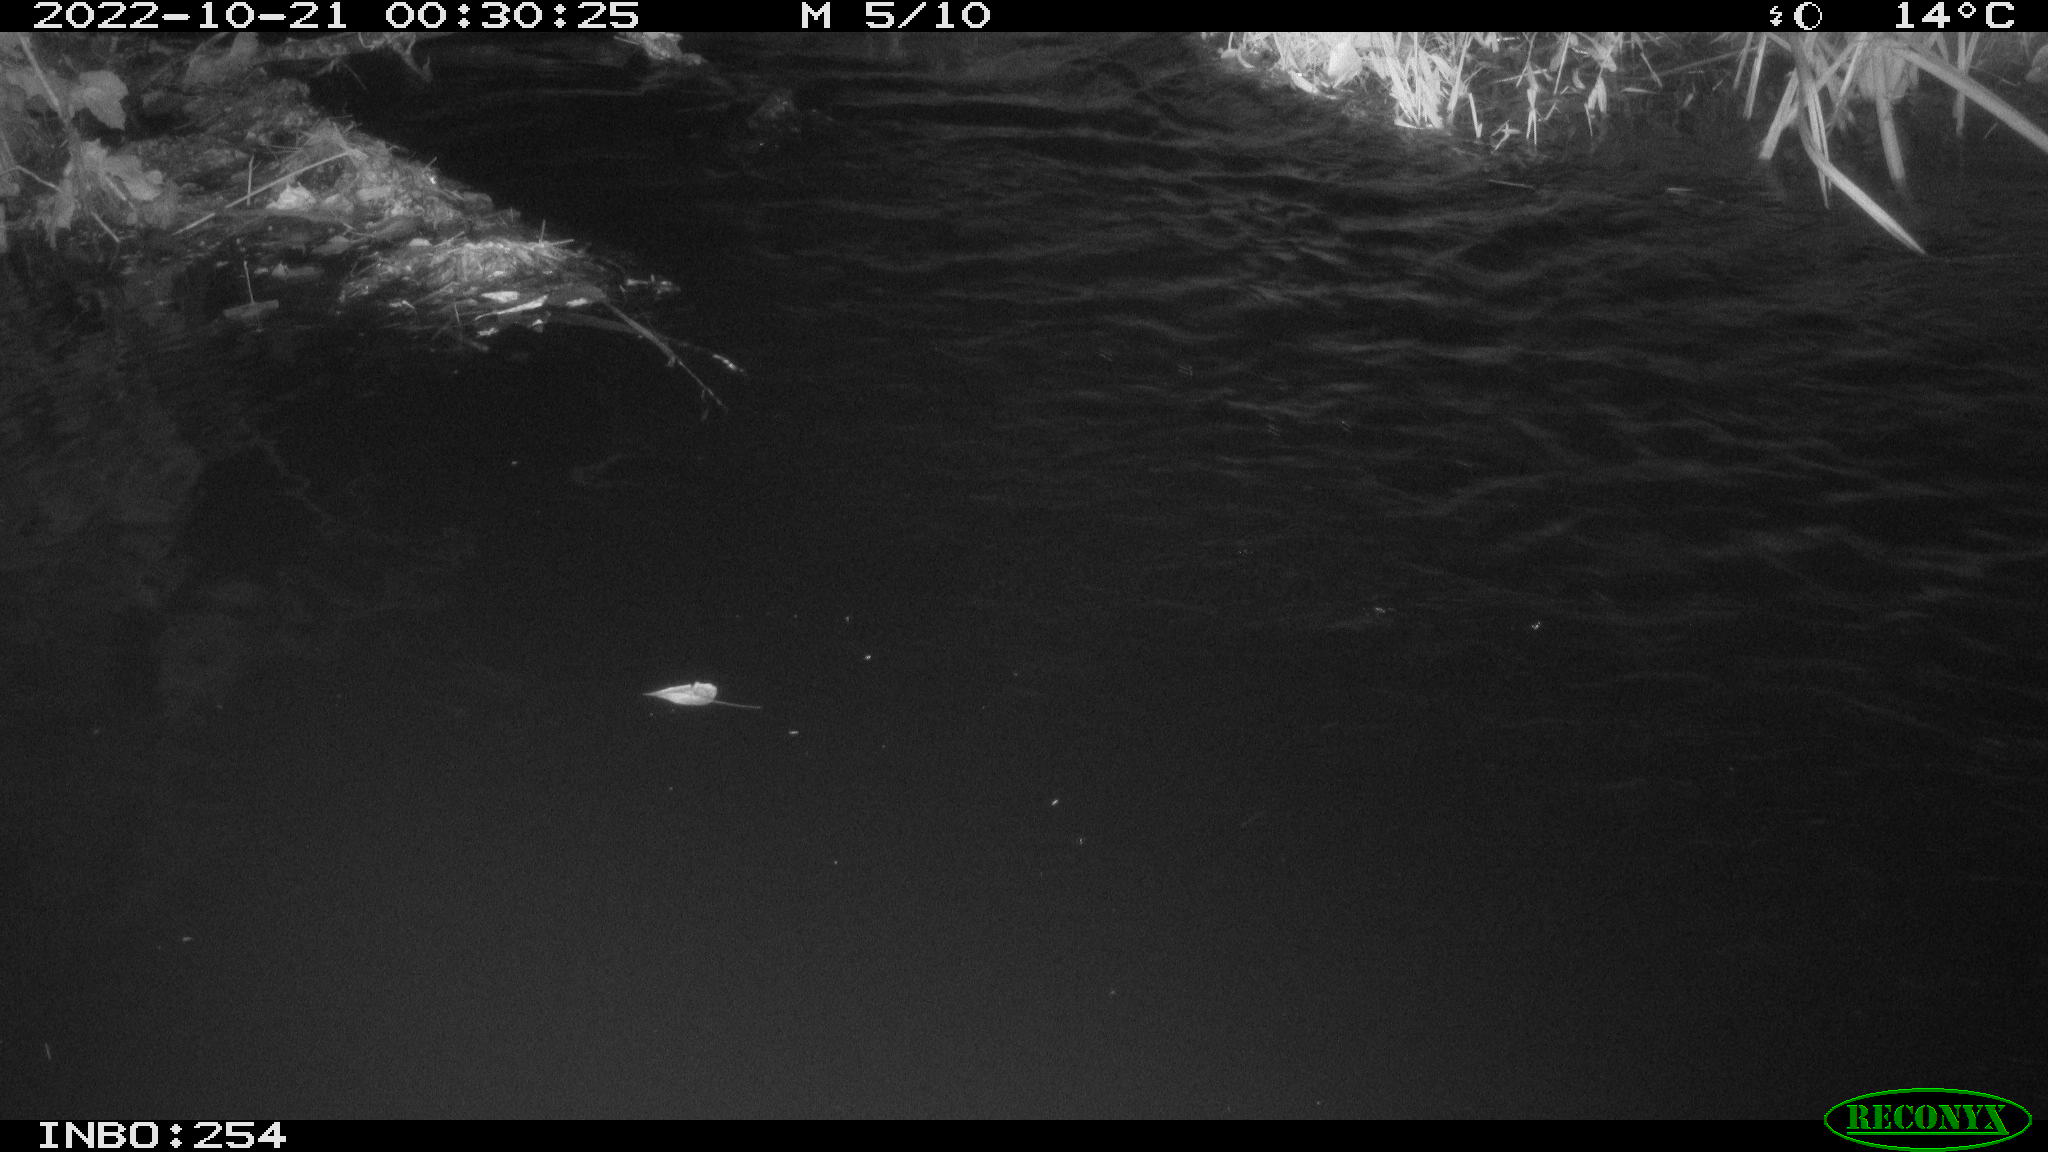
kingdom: Animalia
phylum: Chordata
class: Aves
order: Anseriformes
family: Anatidae
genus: Anas
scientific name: Anas
